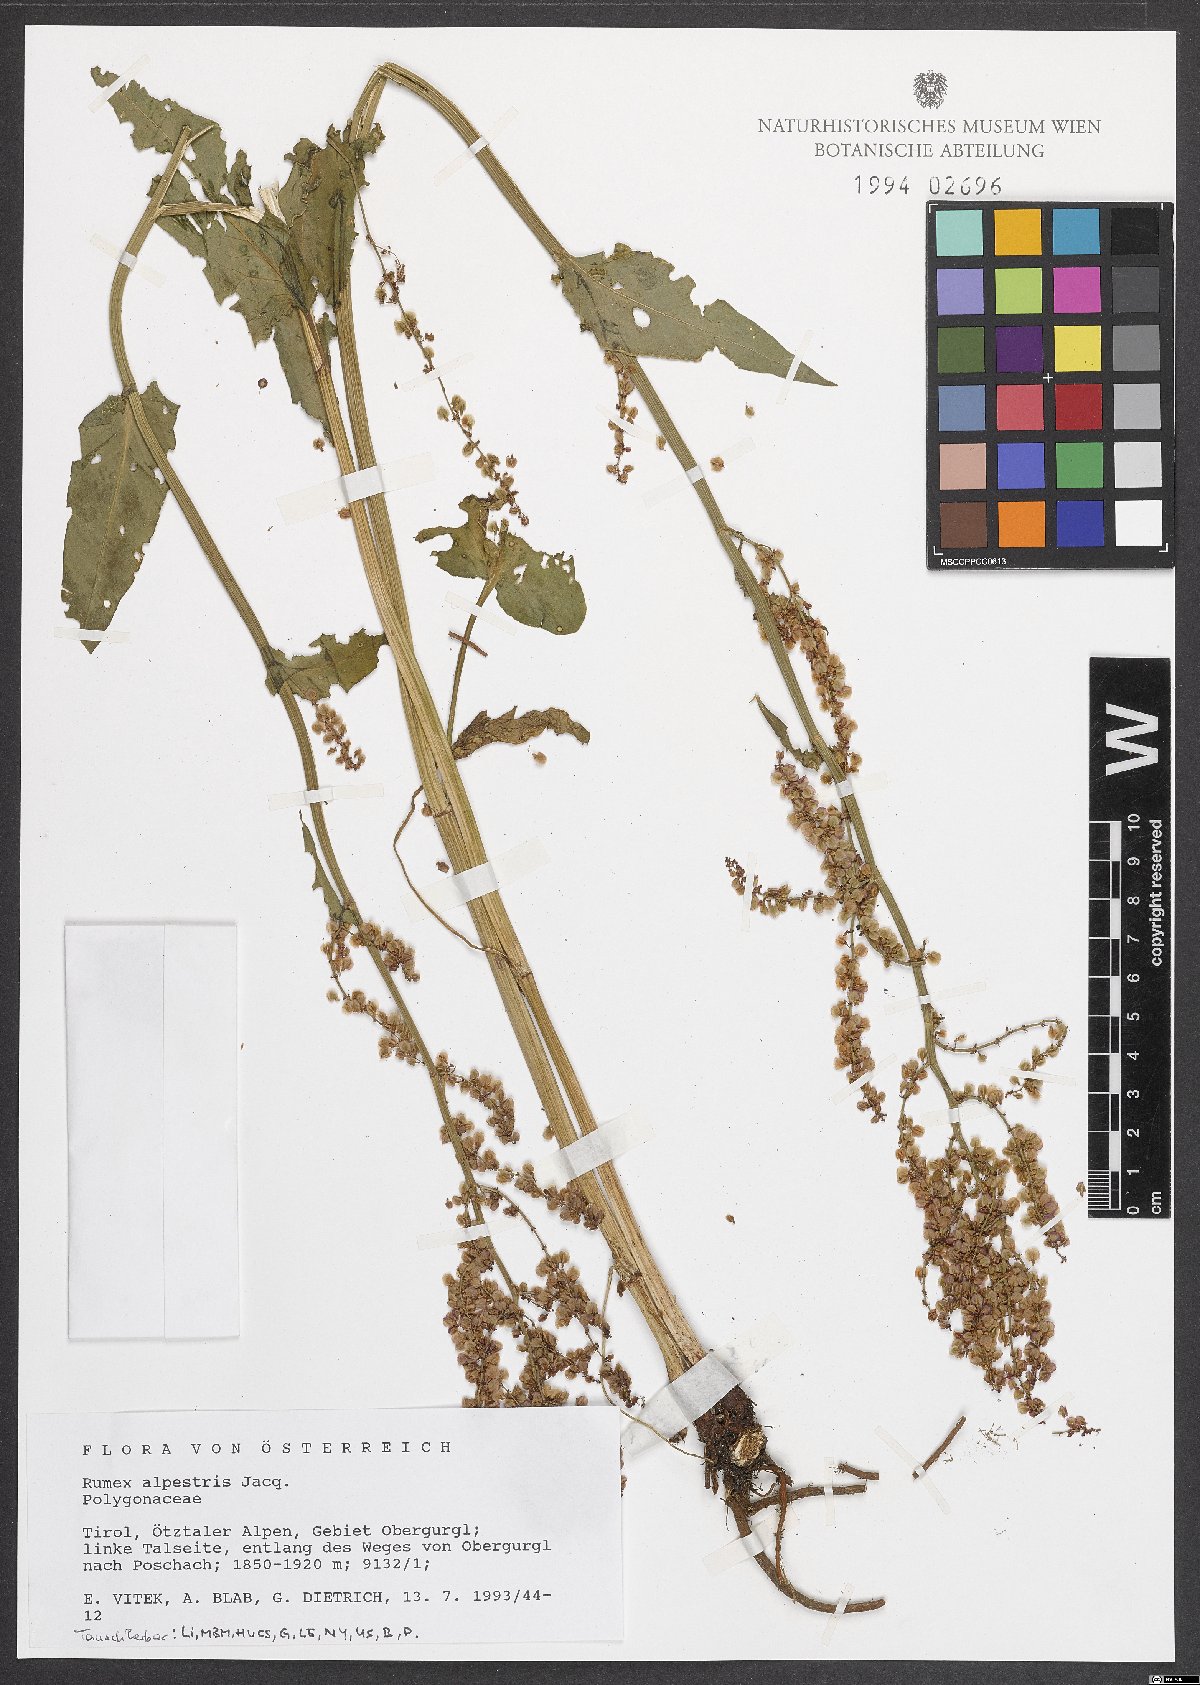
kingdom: Plantae
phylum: Tracheophyta
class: Magnoliopsida
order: Caryophyllales
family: Polygonaceae
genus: Rumex
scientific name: Rumex scutatus
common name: French sorrel
